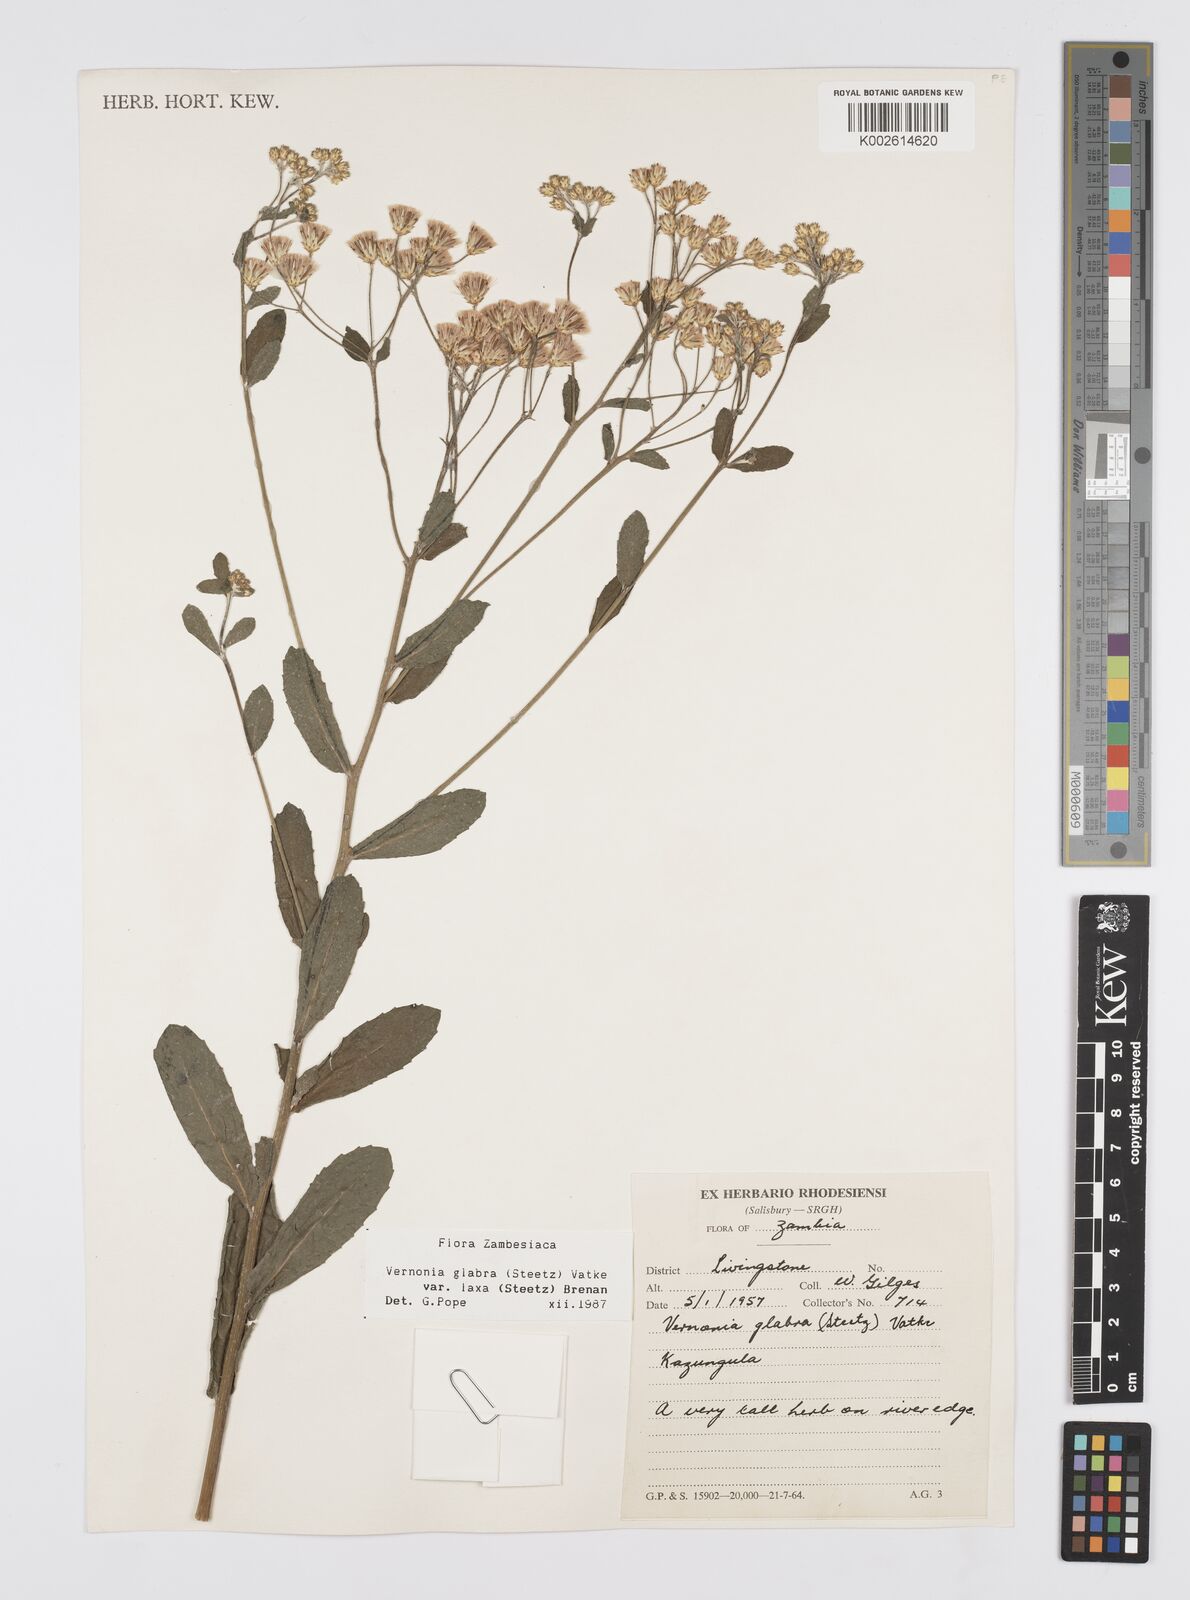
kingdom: Plantae
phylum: Tracheophyta
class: Magnoliopsida
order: Asterales
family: Asteraceae
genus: Linzia
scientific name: Linzia glabra
